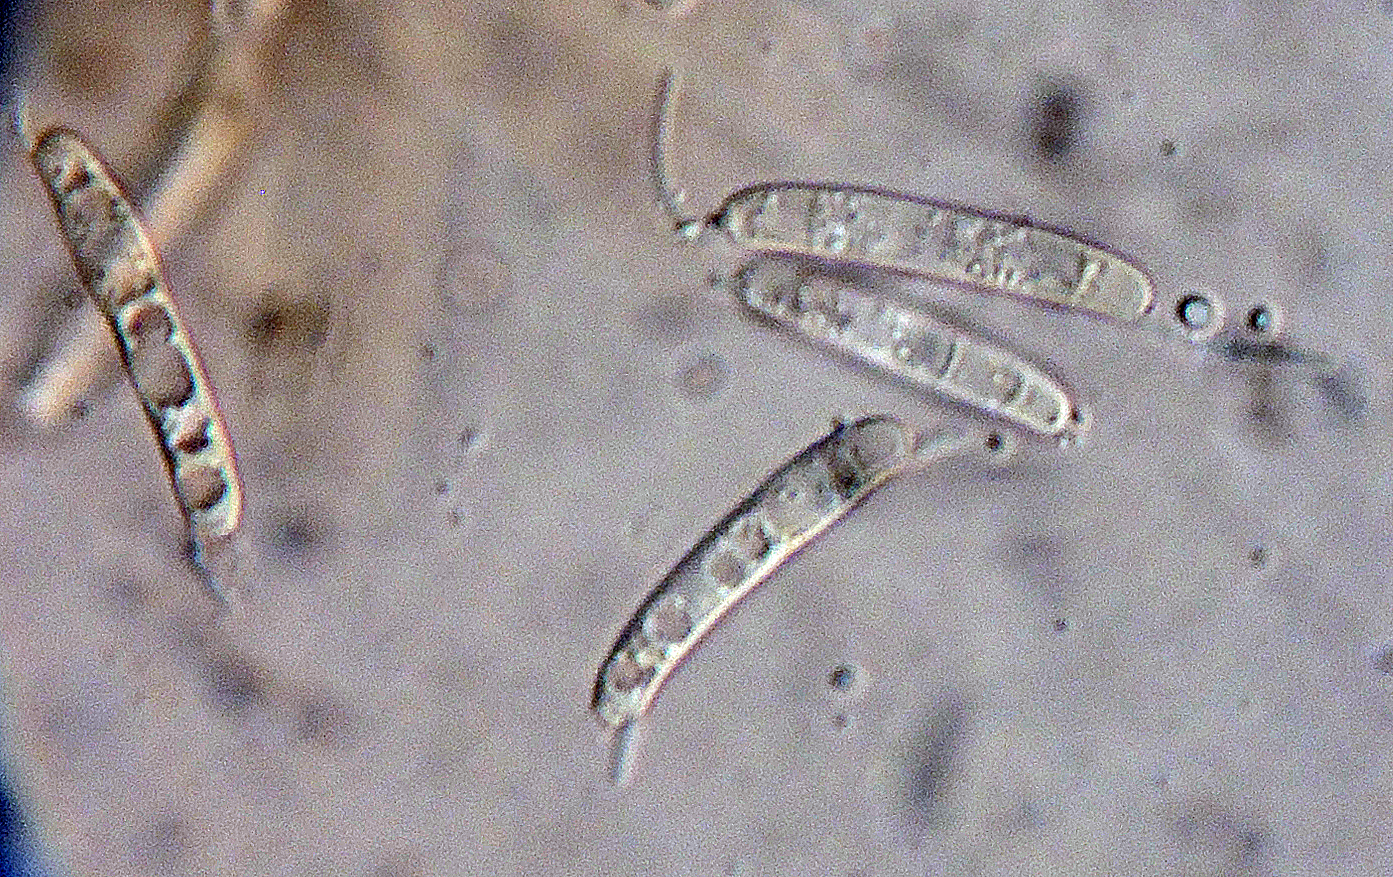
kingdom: Fungi
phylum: Ascomycota
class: Sordariomycetes
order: Amphisphaeriales
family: Discosiaceae
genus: Discosia
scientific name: Discosia
